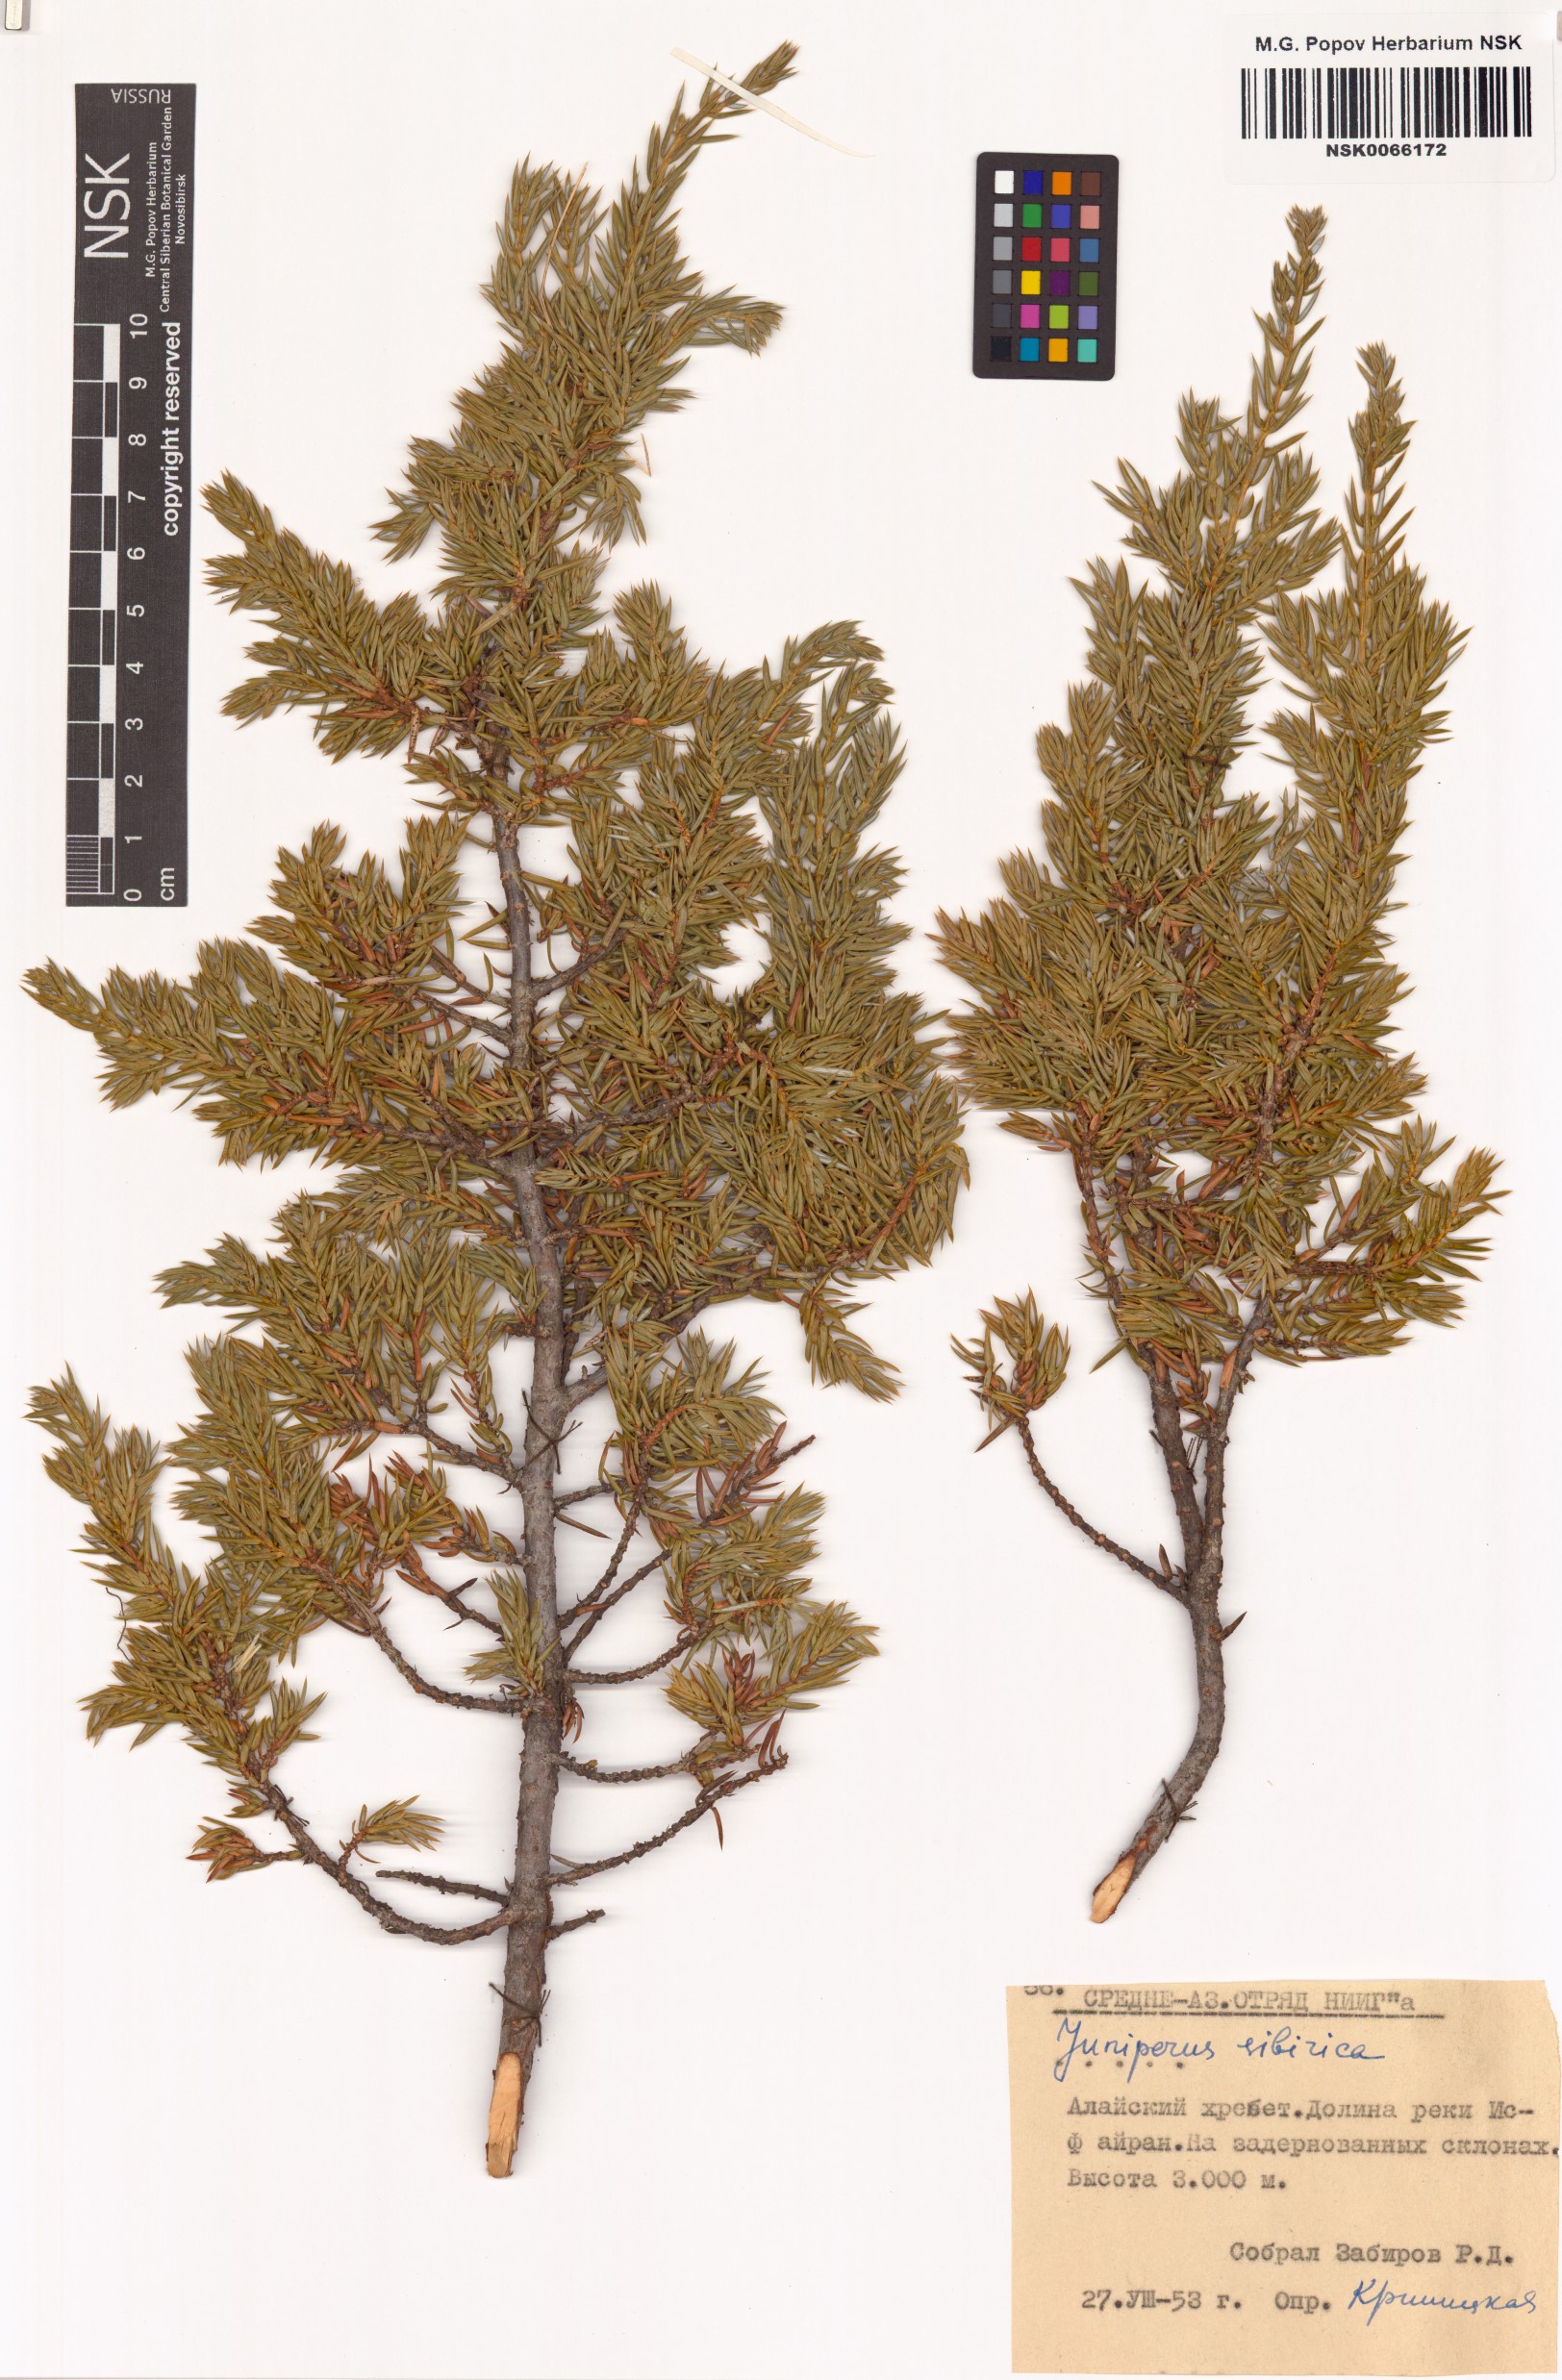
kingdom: Plantae
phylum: Tracheophyta
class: Pinopsida
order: Pinales
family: Cupressaceae
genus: Juniperus
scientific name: Juniperus communis
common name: Common juniper
